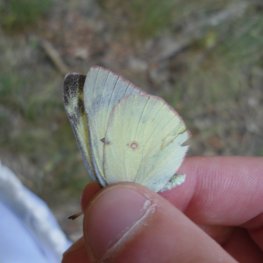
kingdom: Animalia
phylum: Arthropoda
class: Insecta
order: Lepidoptera
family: Pieridae
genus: Colias
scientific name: Colias philodice
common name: Clouded Sulphur
